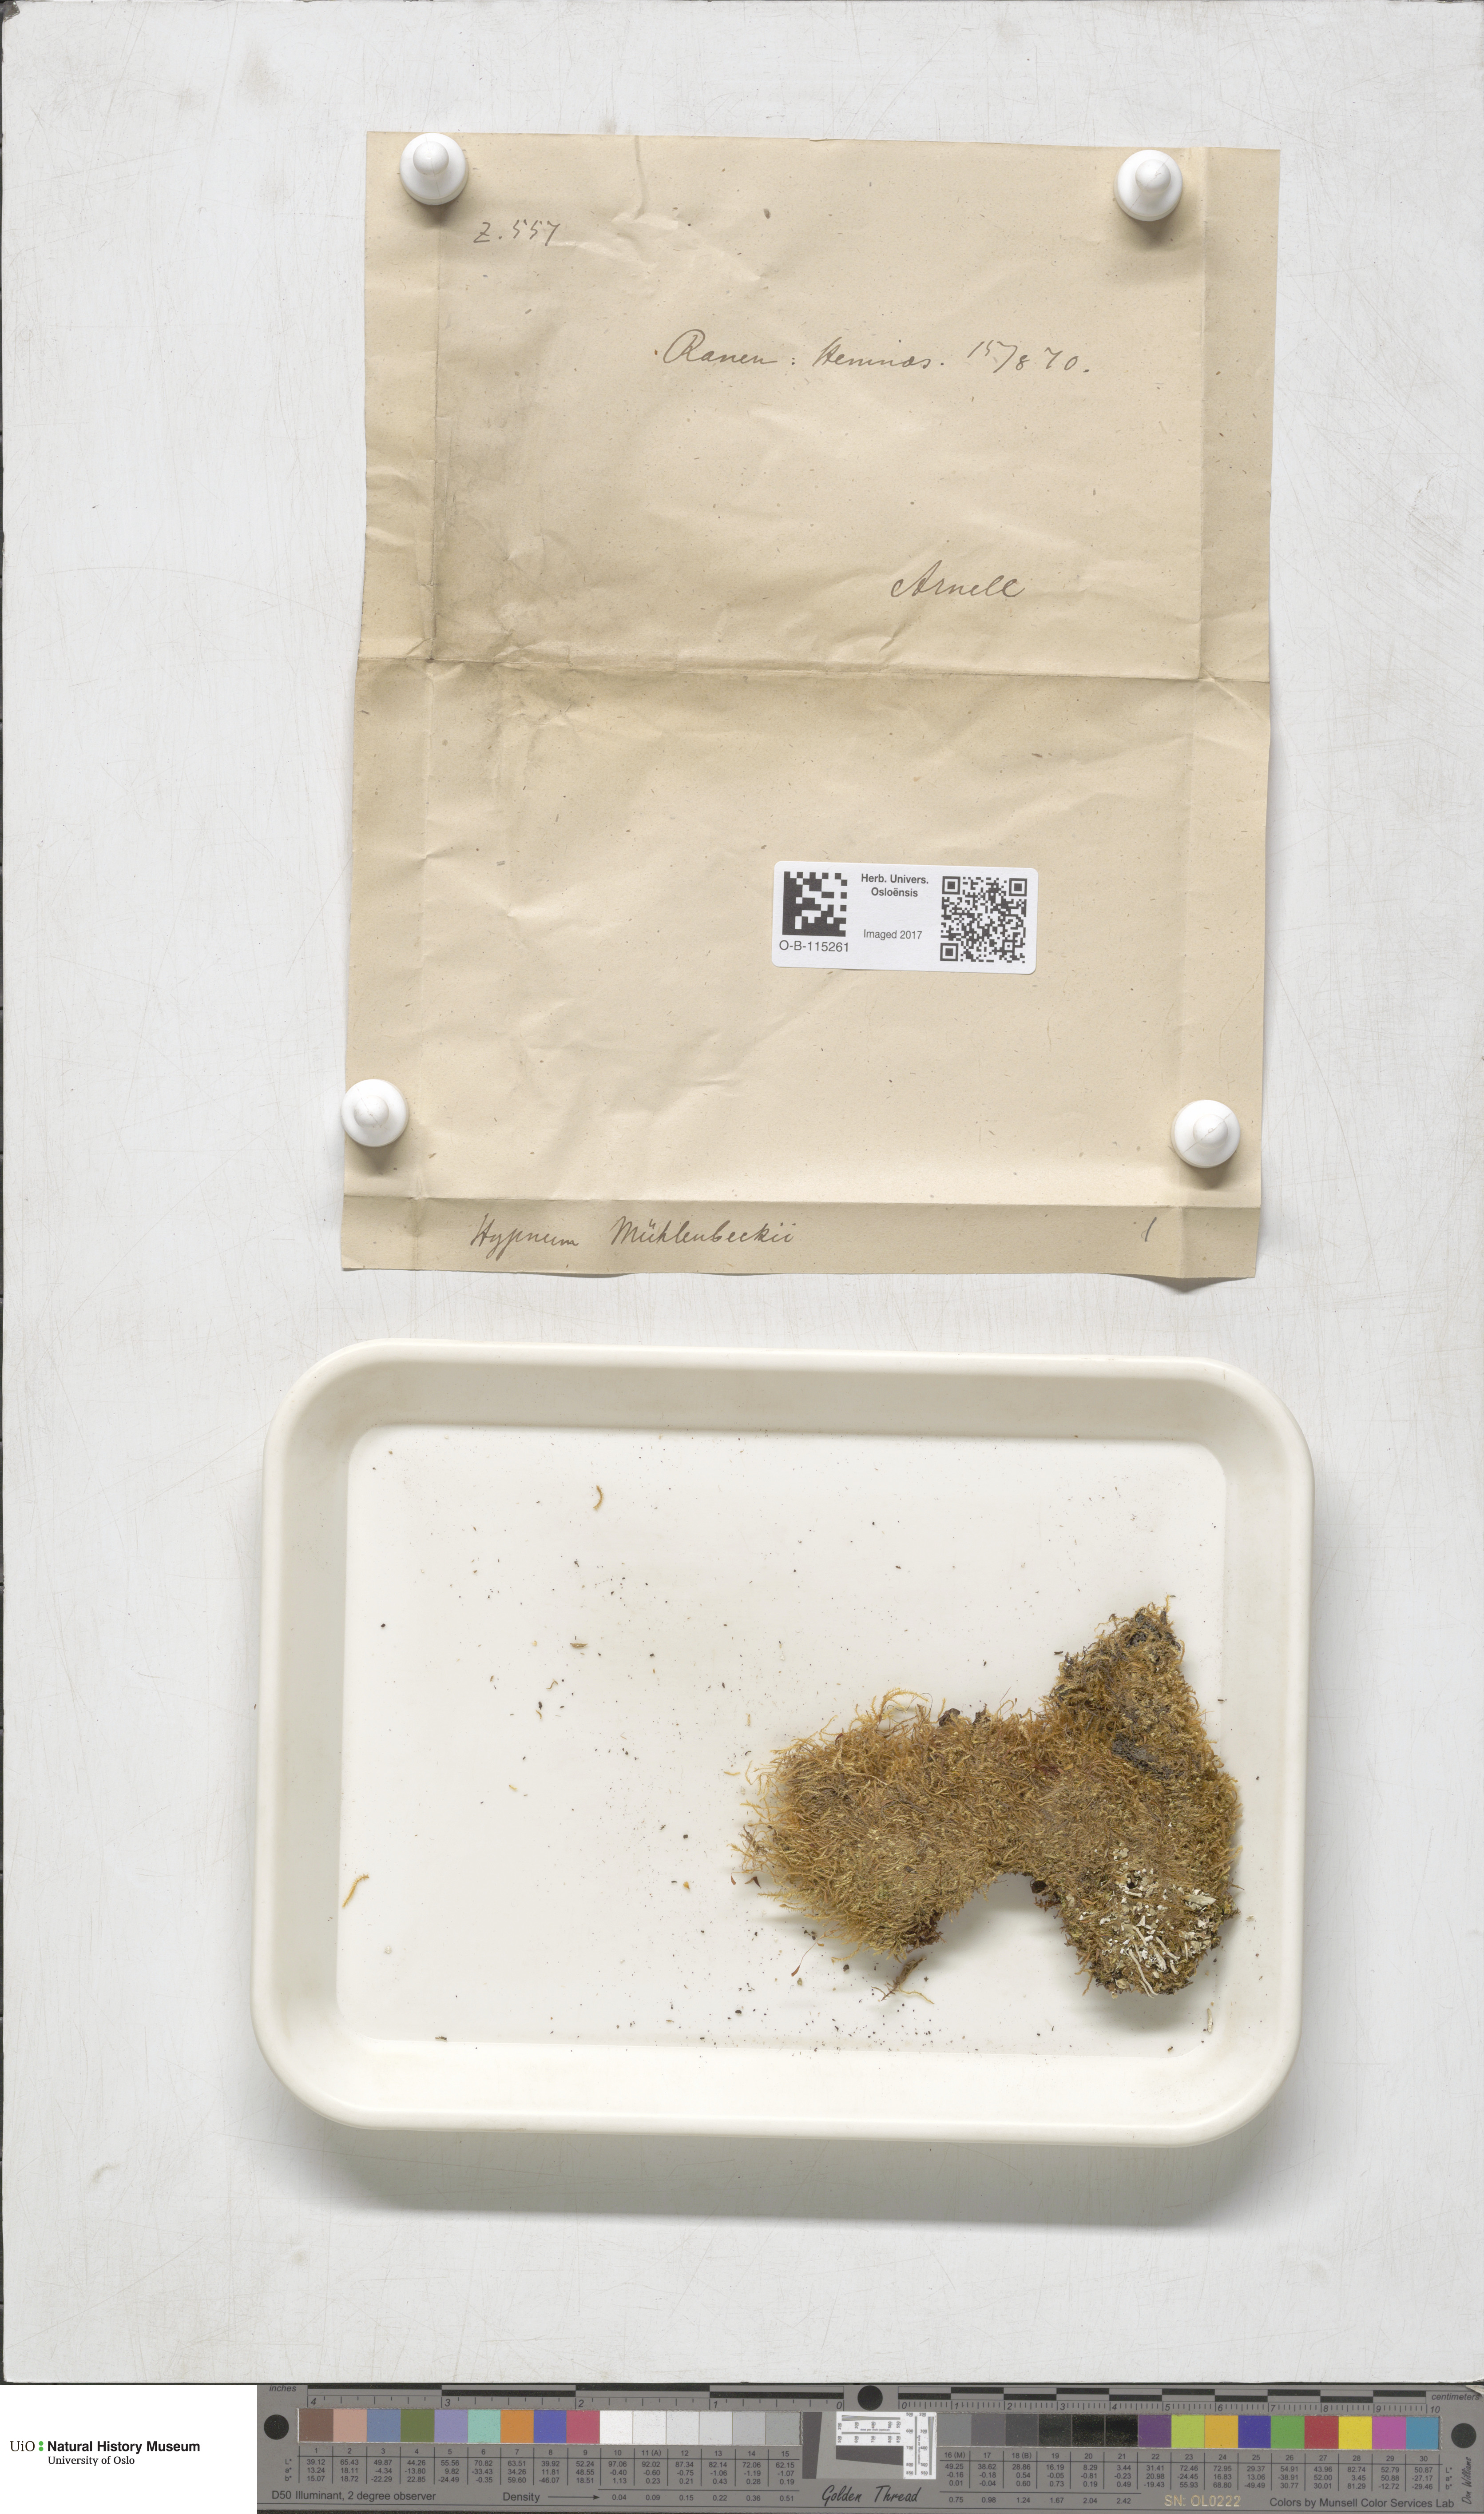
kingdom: Plantae
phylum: Bryophyta
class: Bryopsida
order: Hypnales
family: Plagiotheciaceae
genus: Herzogiella
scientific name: Herzogiella striatella
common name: Muhlenbeck's feather-moss
